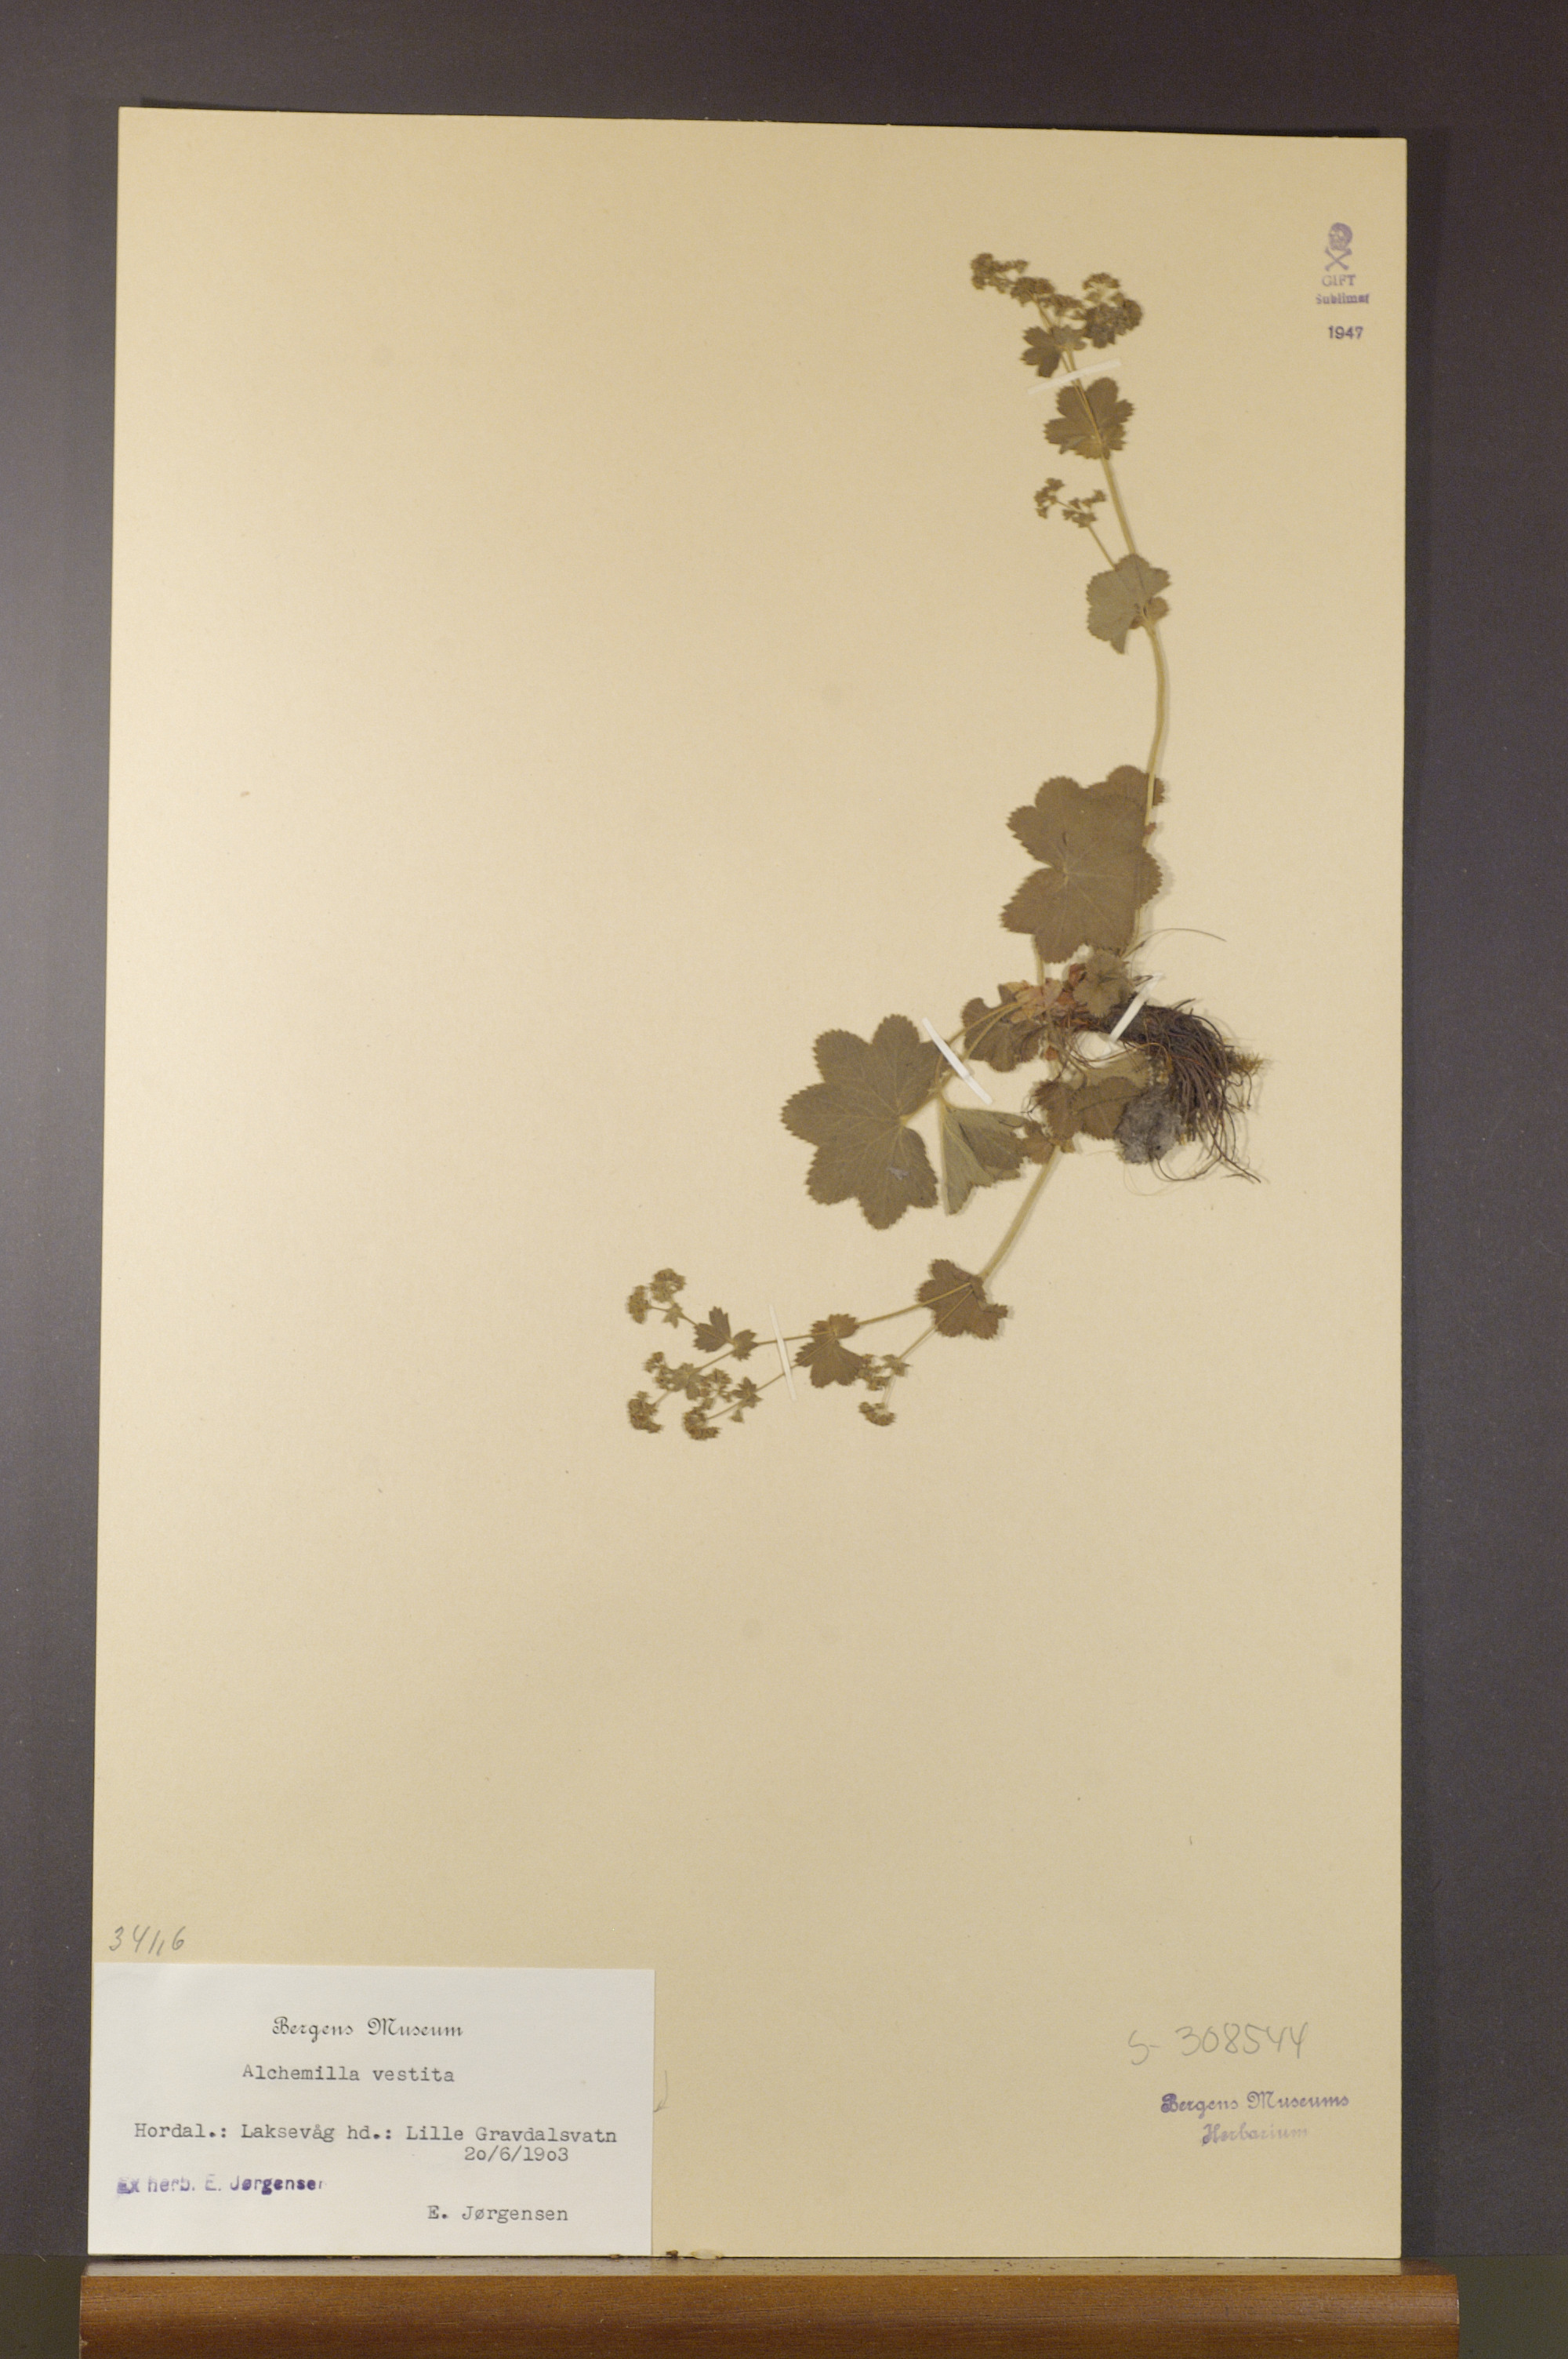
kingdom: Plantae
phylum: Tracheophyta
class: Magnoliopsida
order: Rosales
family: Rosaceae
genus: Alchemilla
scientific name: Alchemilla filicaulis
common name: Hairy lady's-mantle
